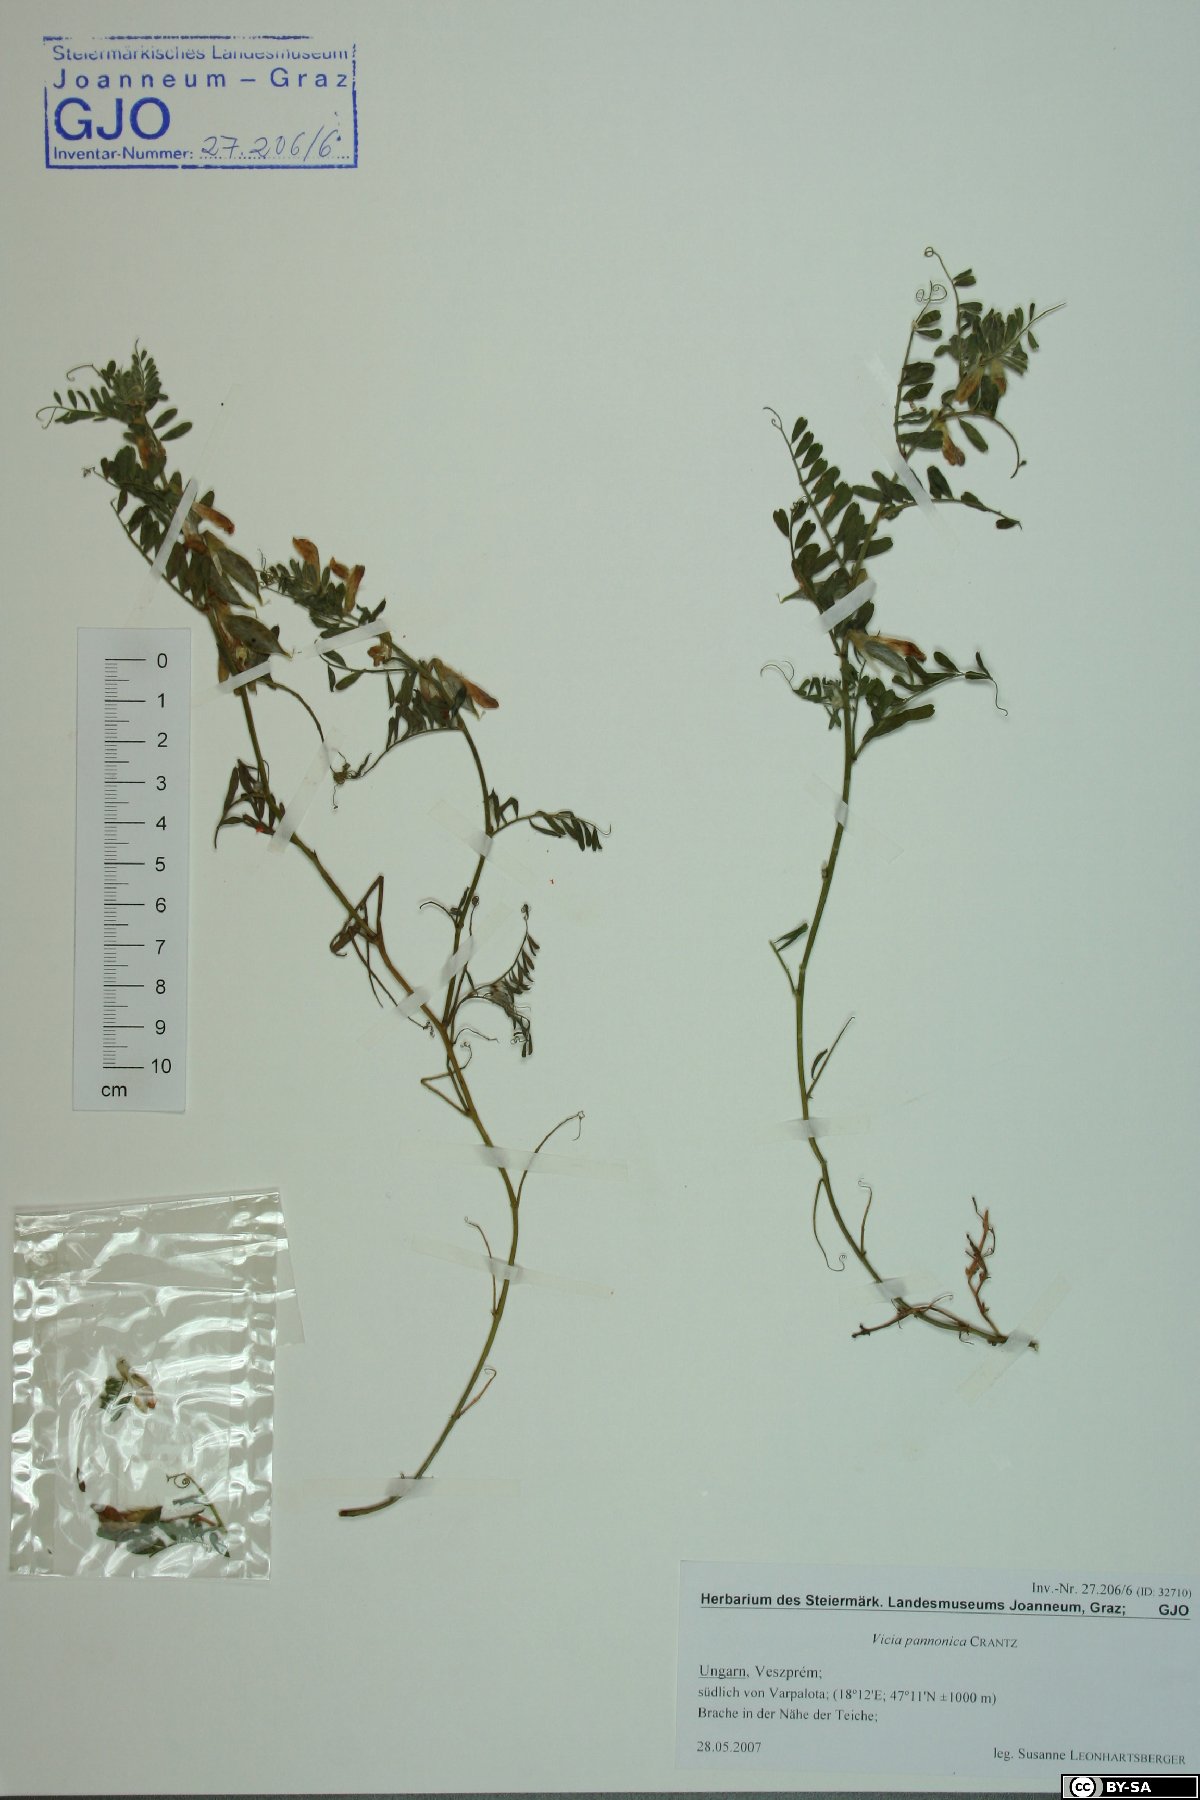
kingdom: Plantae
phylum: Tracheophyta
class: Magnoliopsida
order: Fabales
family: Fabaceae
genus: Vicia
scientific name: Vicia pannonica
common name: Hungarian vetch
